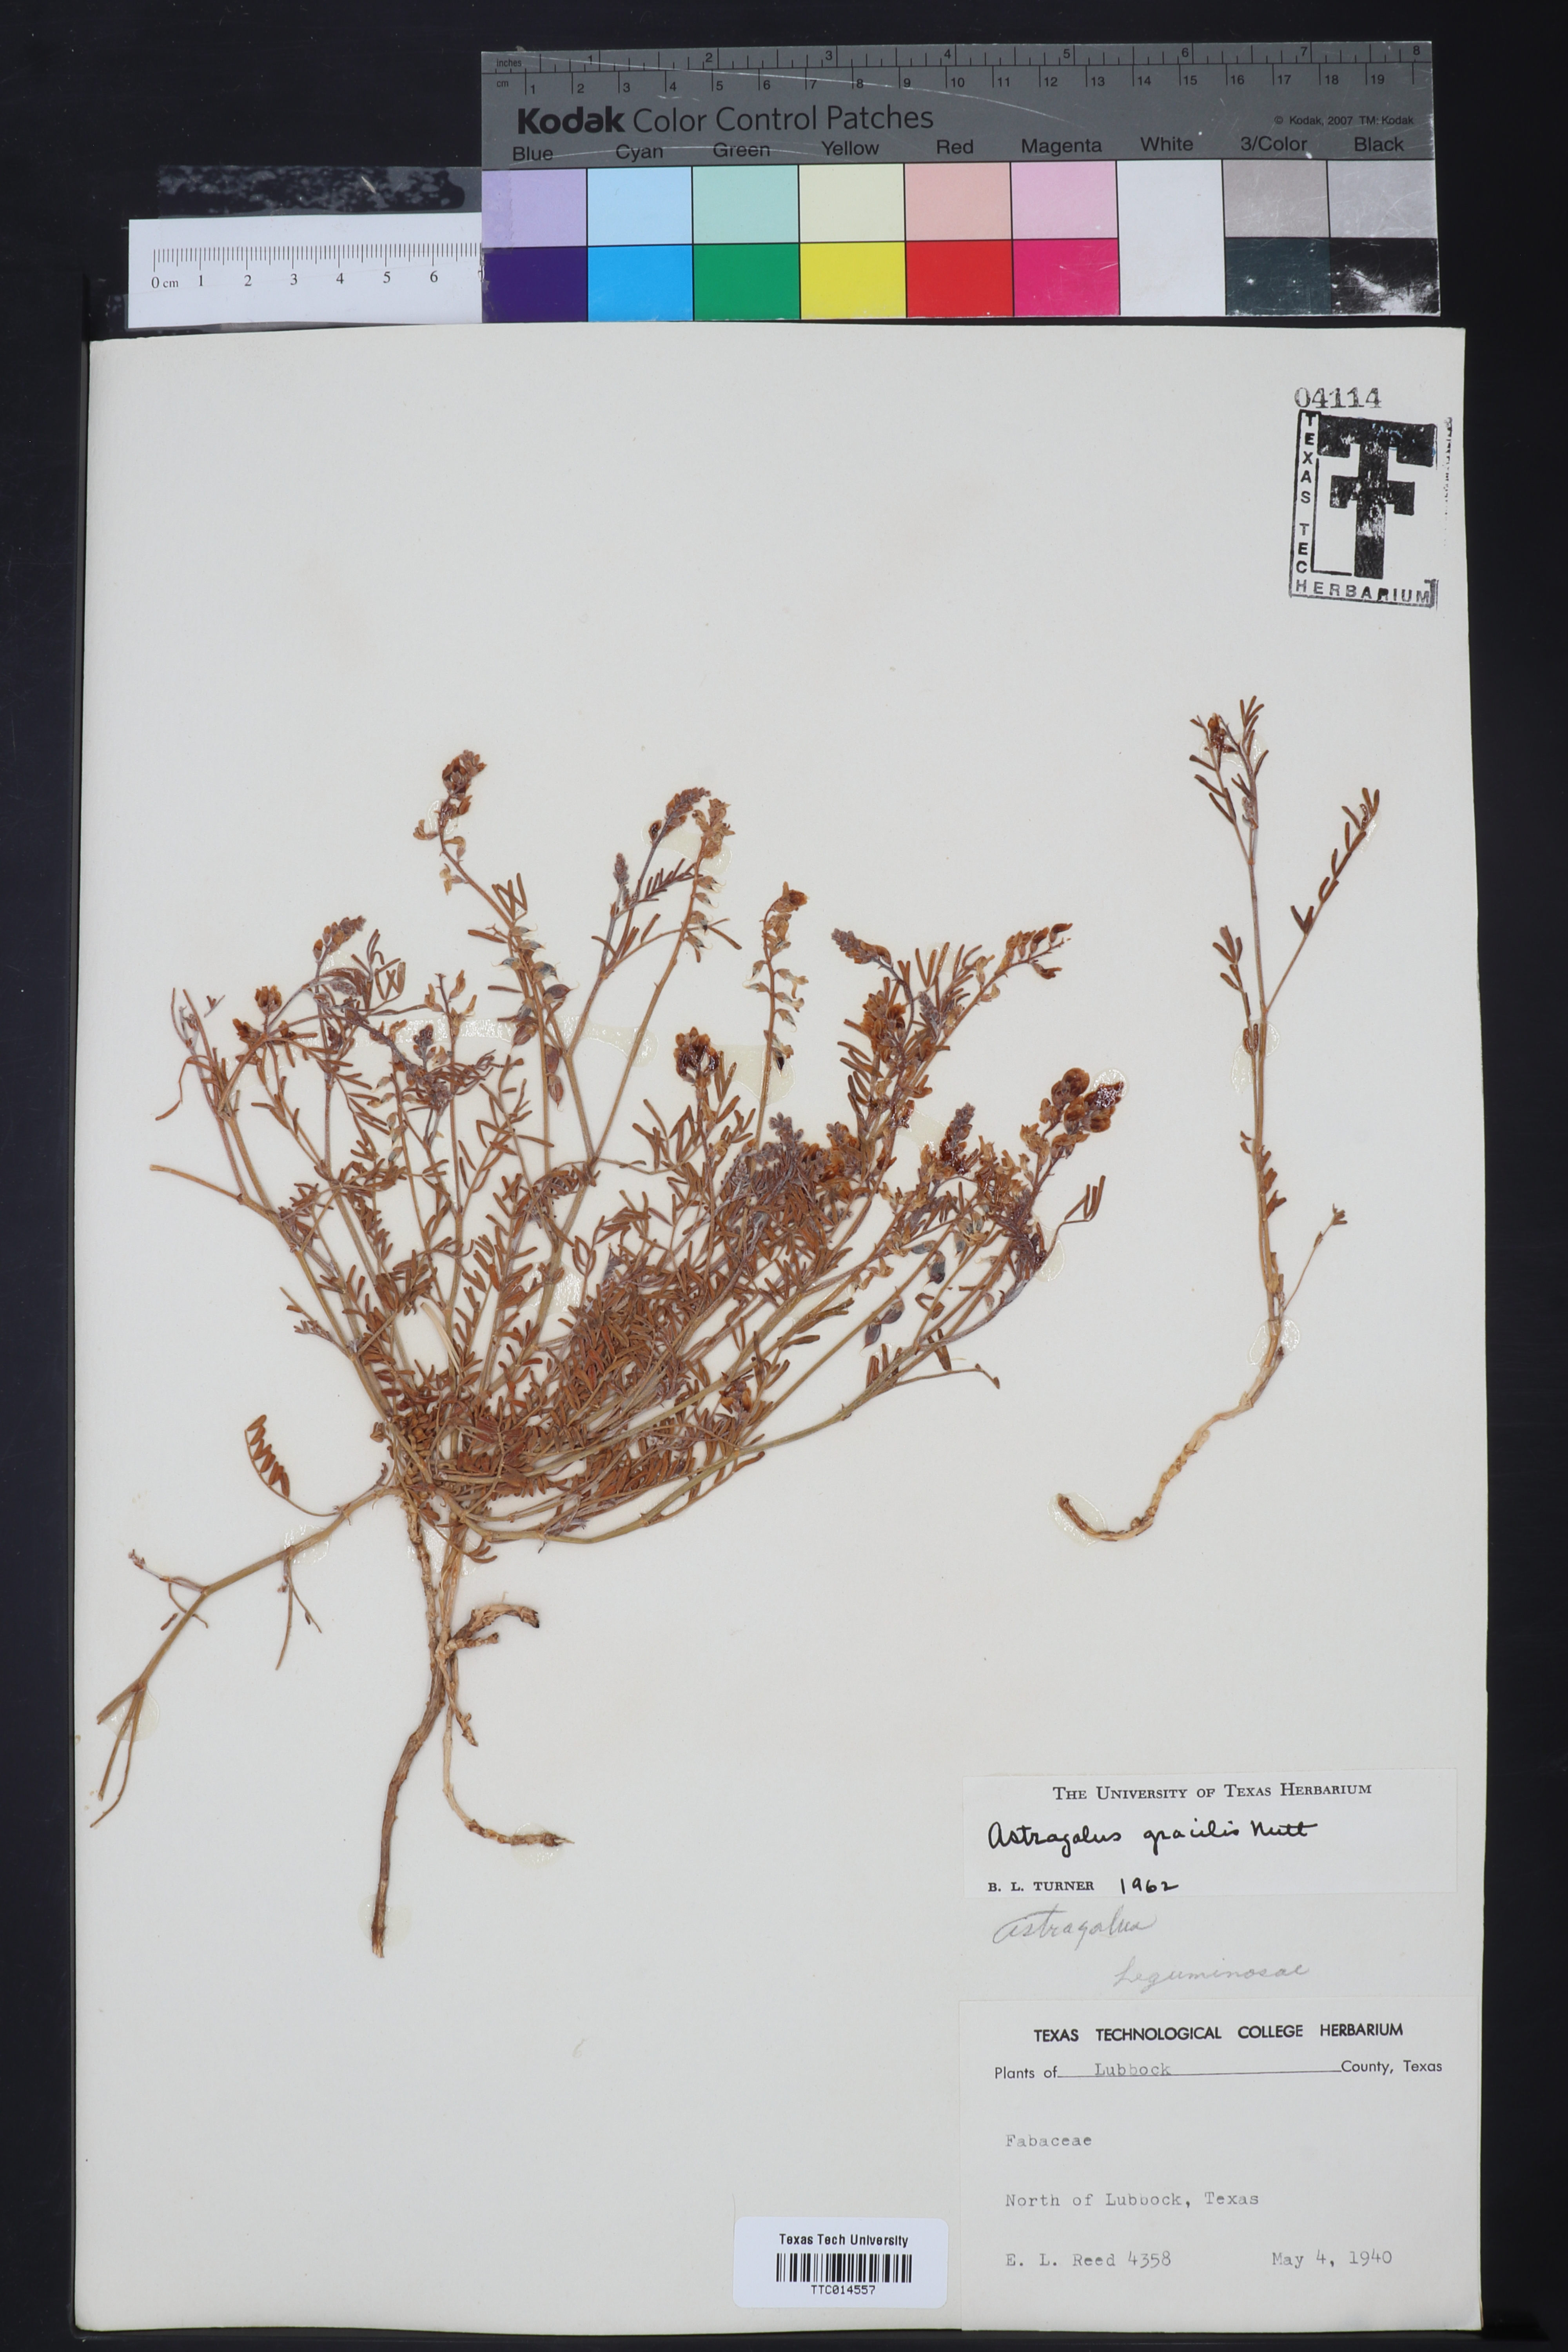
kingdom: Plantae
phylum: Tracheophyta
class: Magnoliopsida
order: Fabales
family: Fabaceae
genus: Astragalus
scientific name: Astragalus gracilis
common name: Slender milk-vetch
